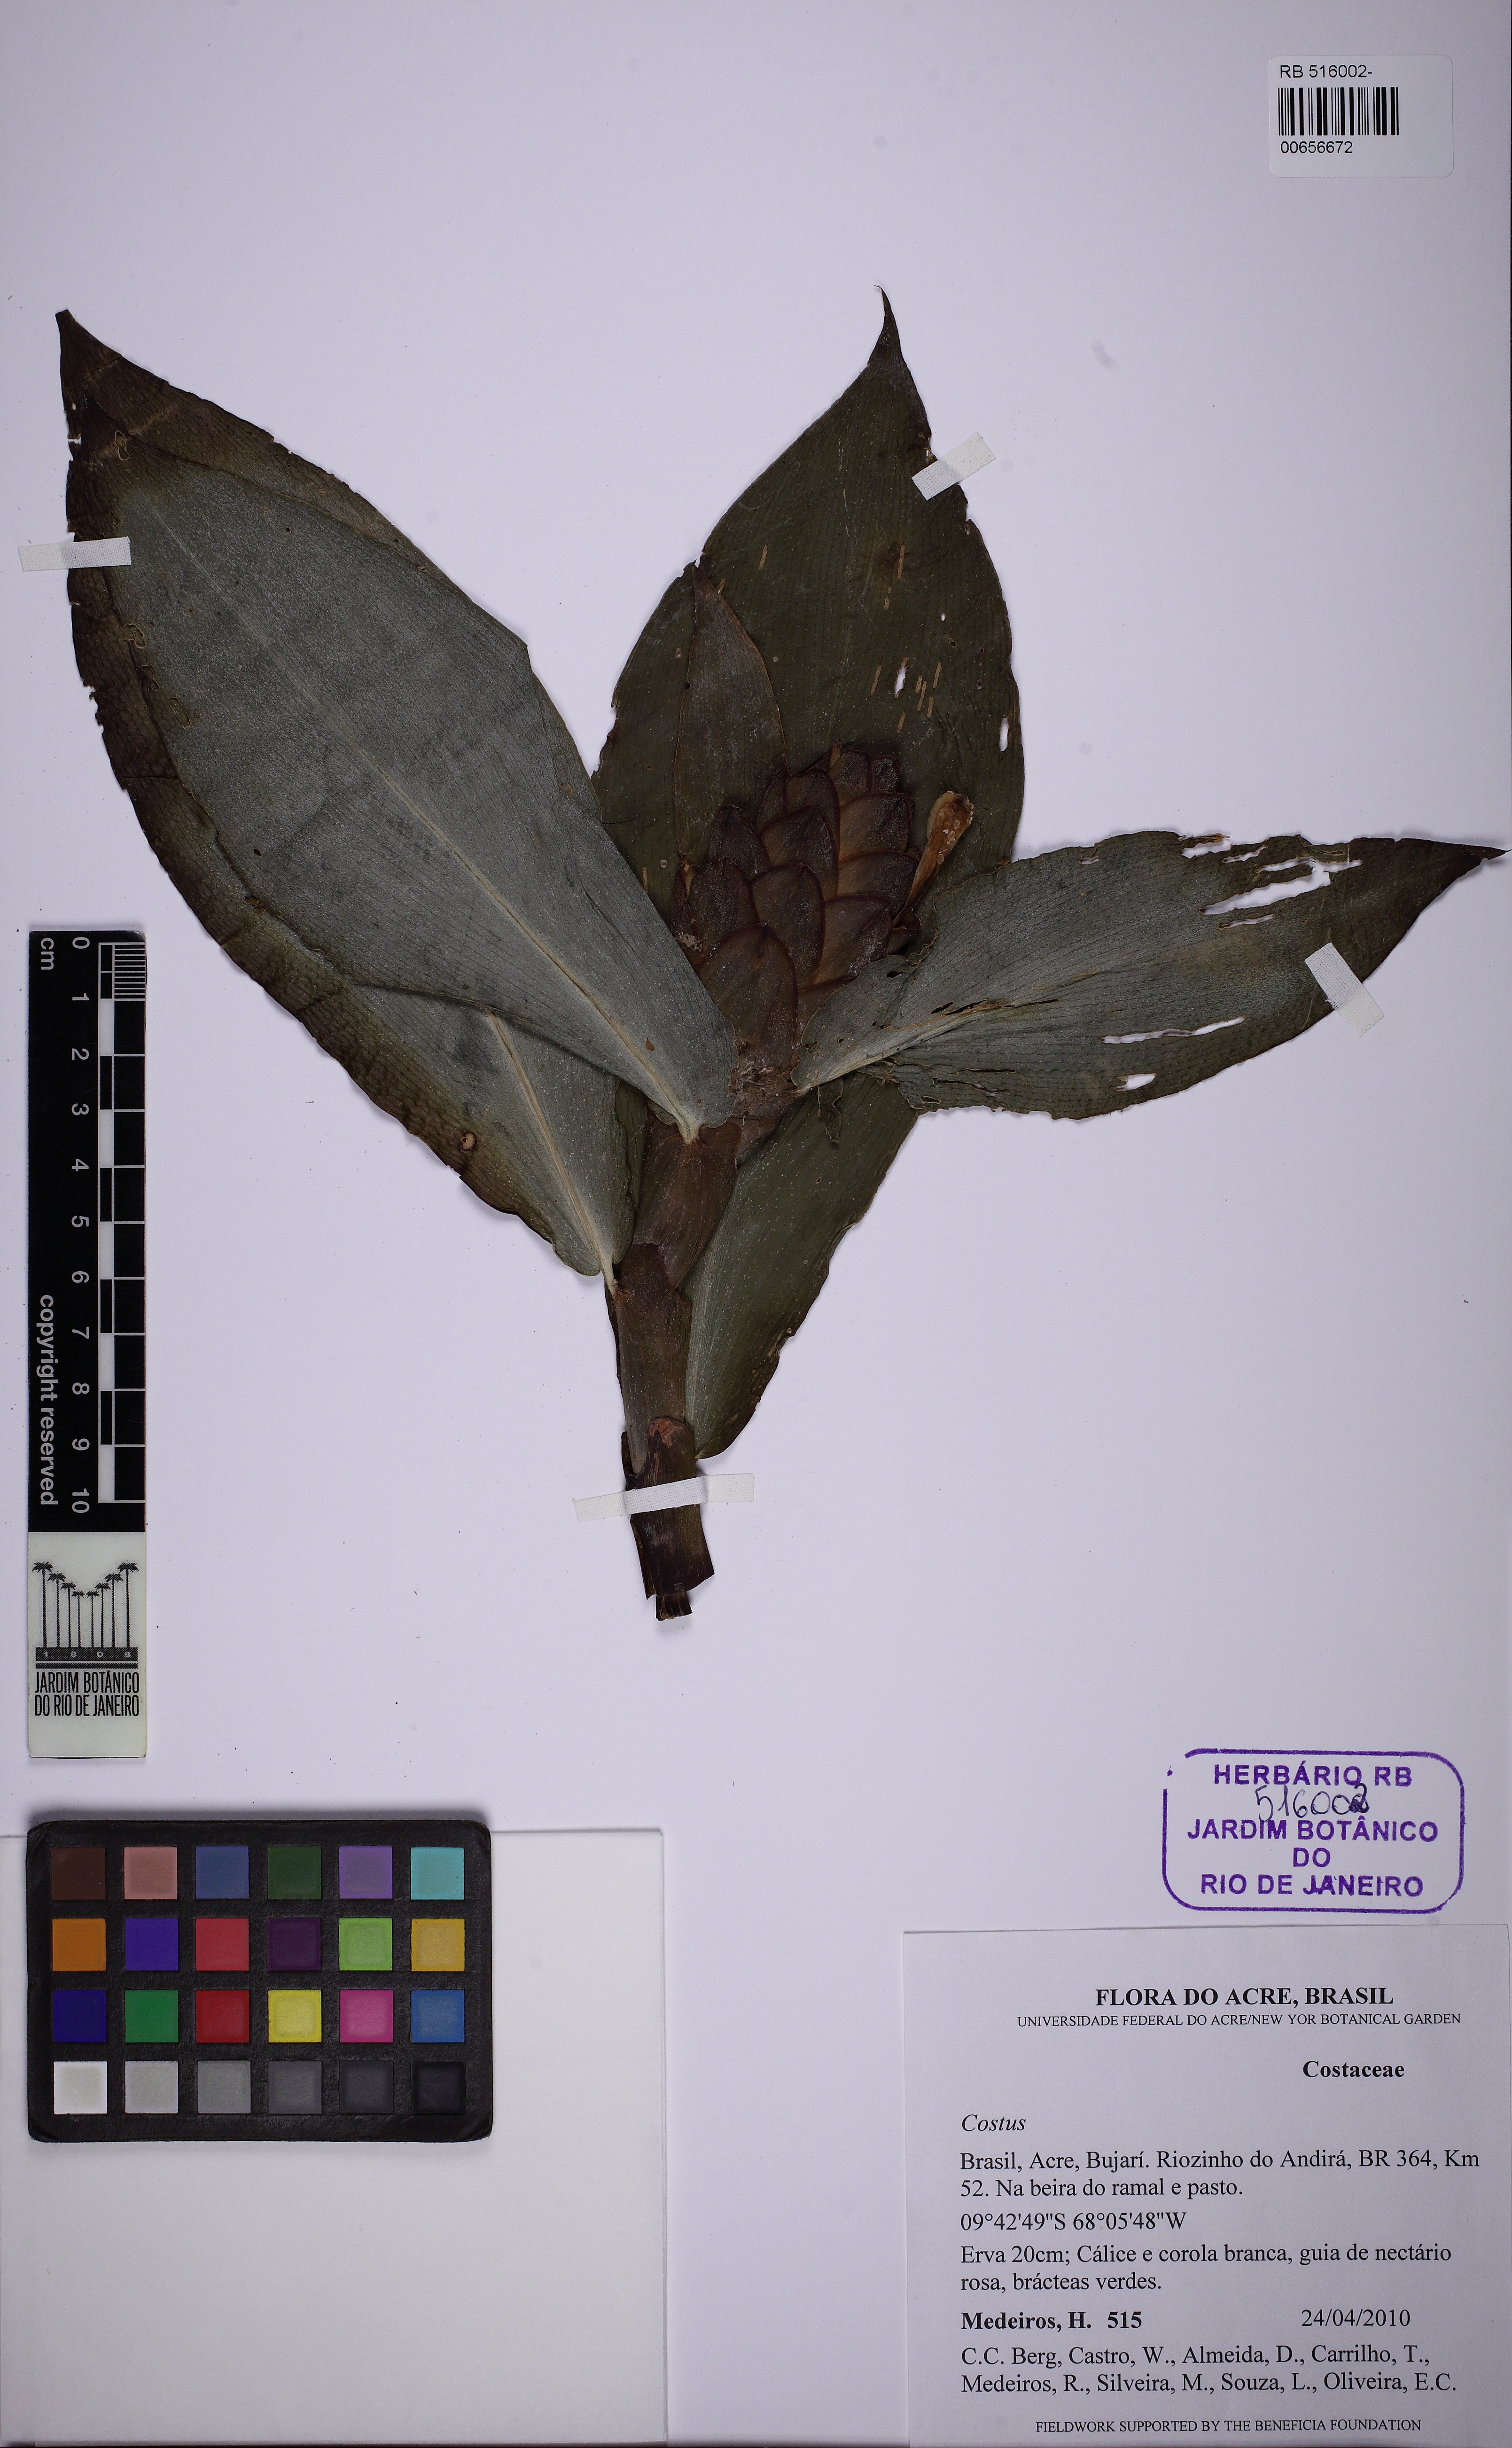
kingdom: Plantae
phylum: Tracheophyta
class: Liliopsida
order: Zingiberales
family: Costaceae
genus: Costus
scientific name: Costus
